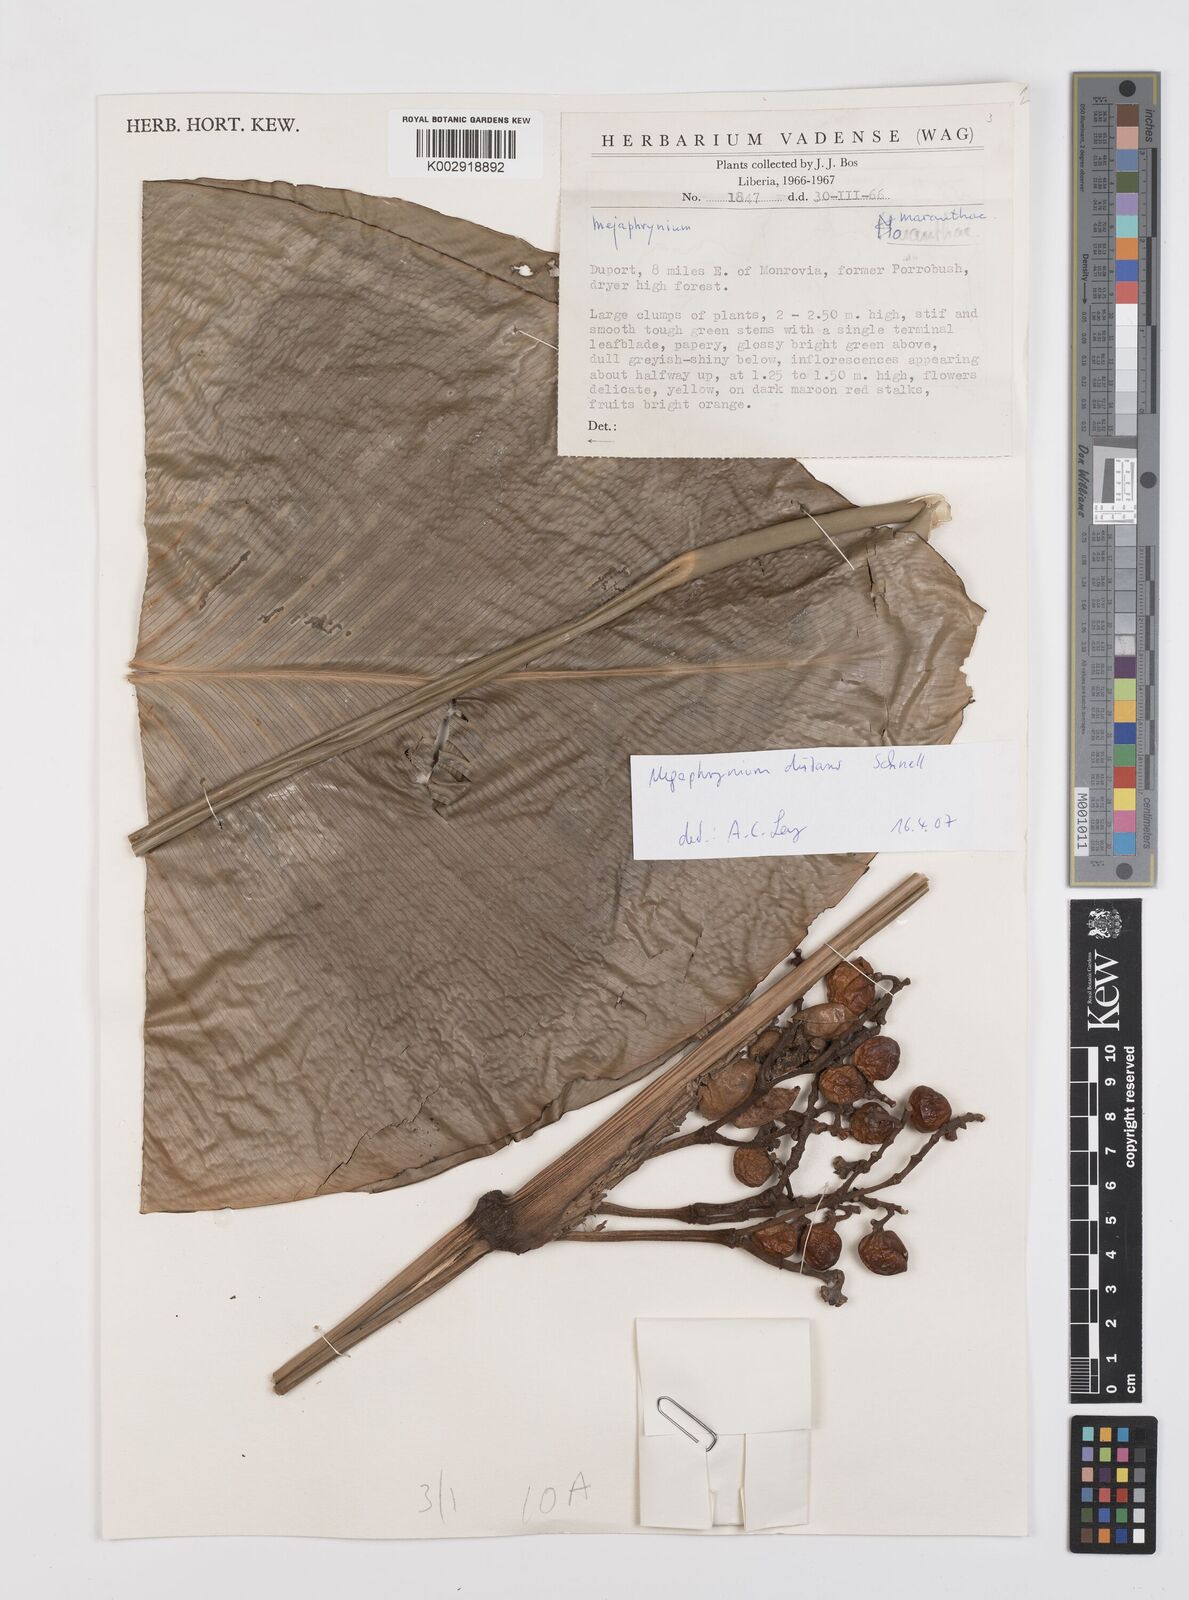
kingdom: Plantae
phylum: Tracheophyta
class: Liliopsida
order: Zingiberales
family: Marantaceae
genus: Megaphrynium
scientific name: Megaphrynium distans
